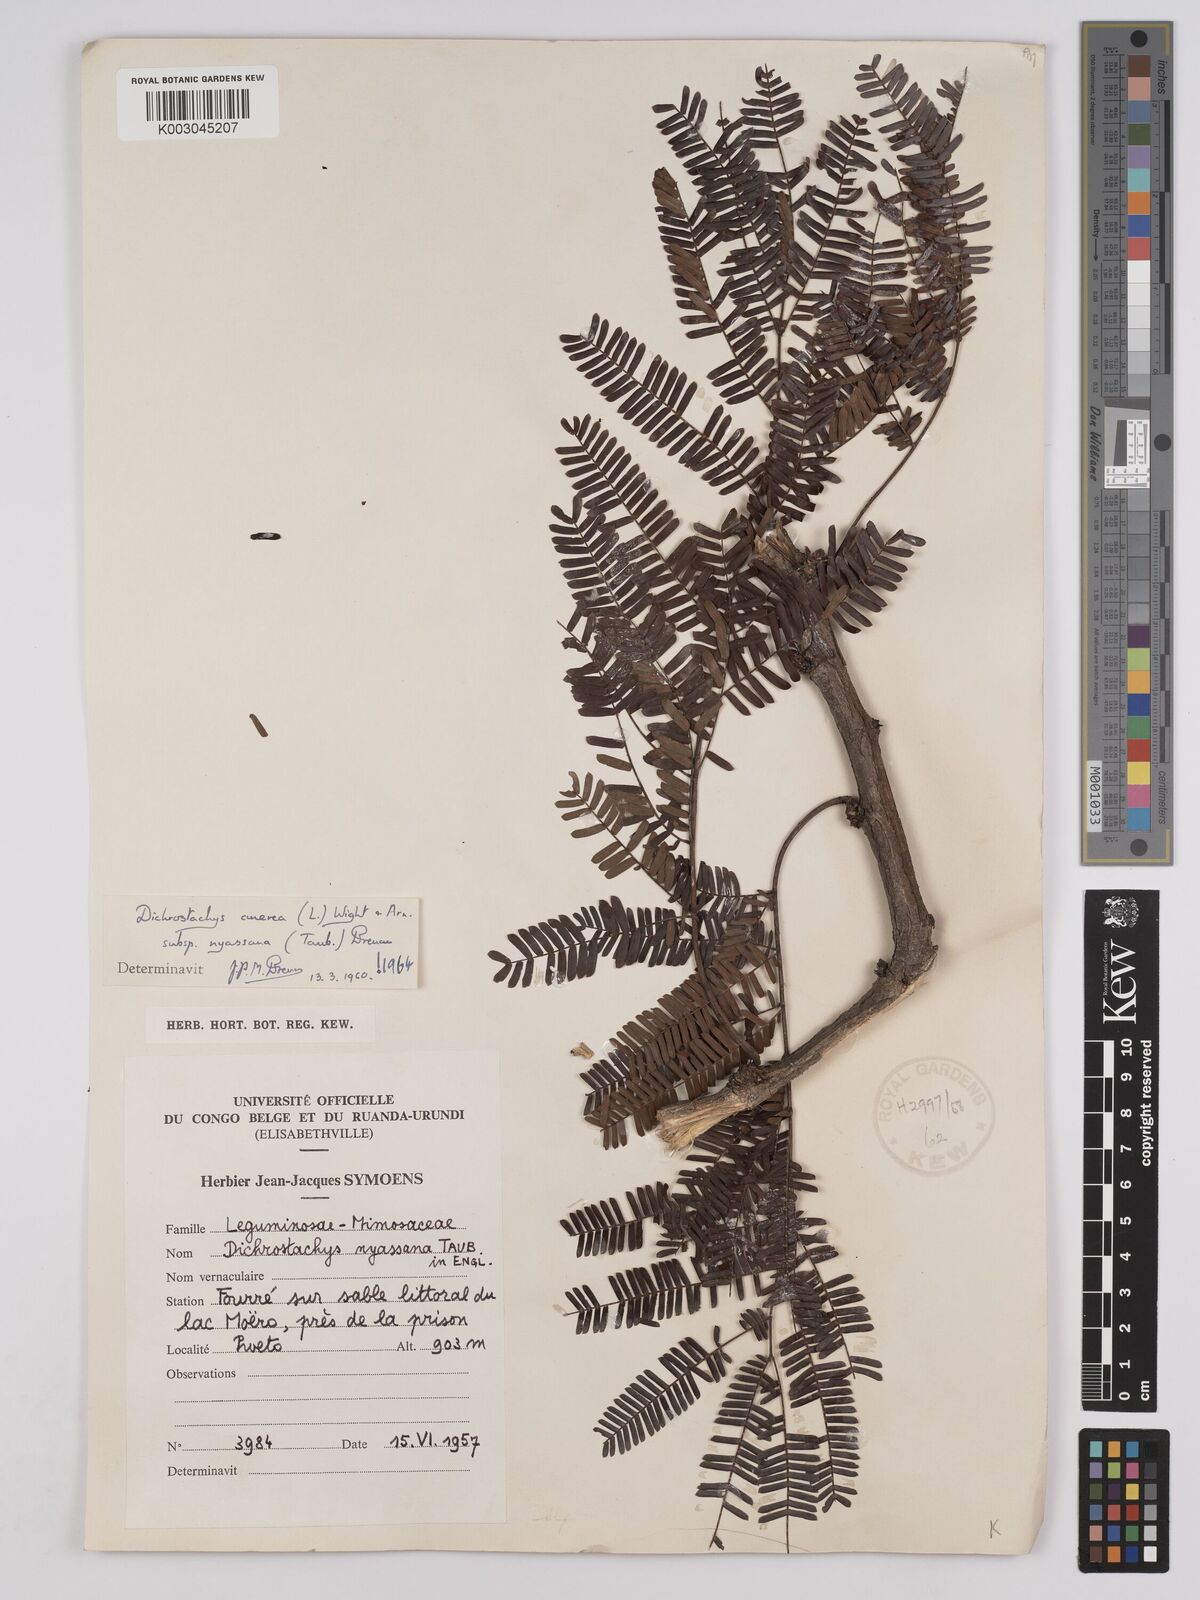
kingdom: Plantae
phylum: Tracheophyta
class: Magnoliopsida
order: Fabales
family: Fabaceae
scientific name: Fabaceae
